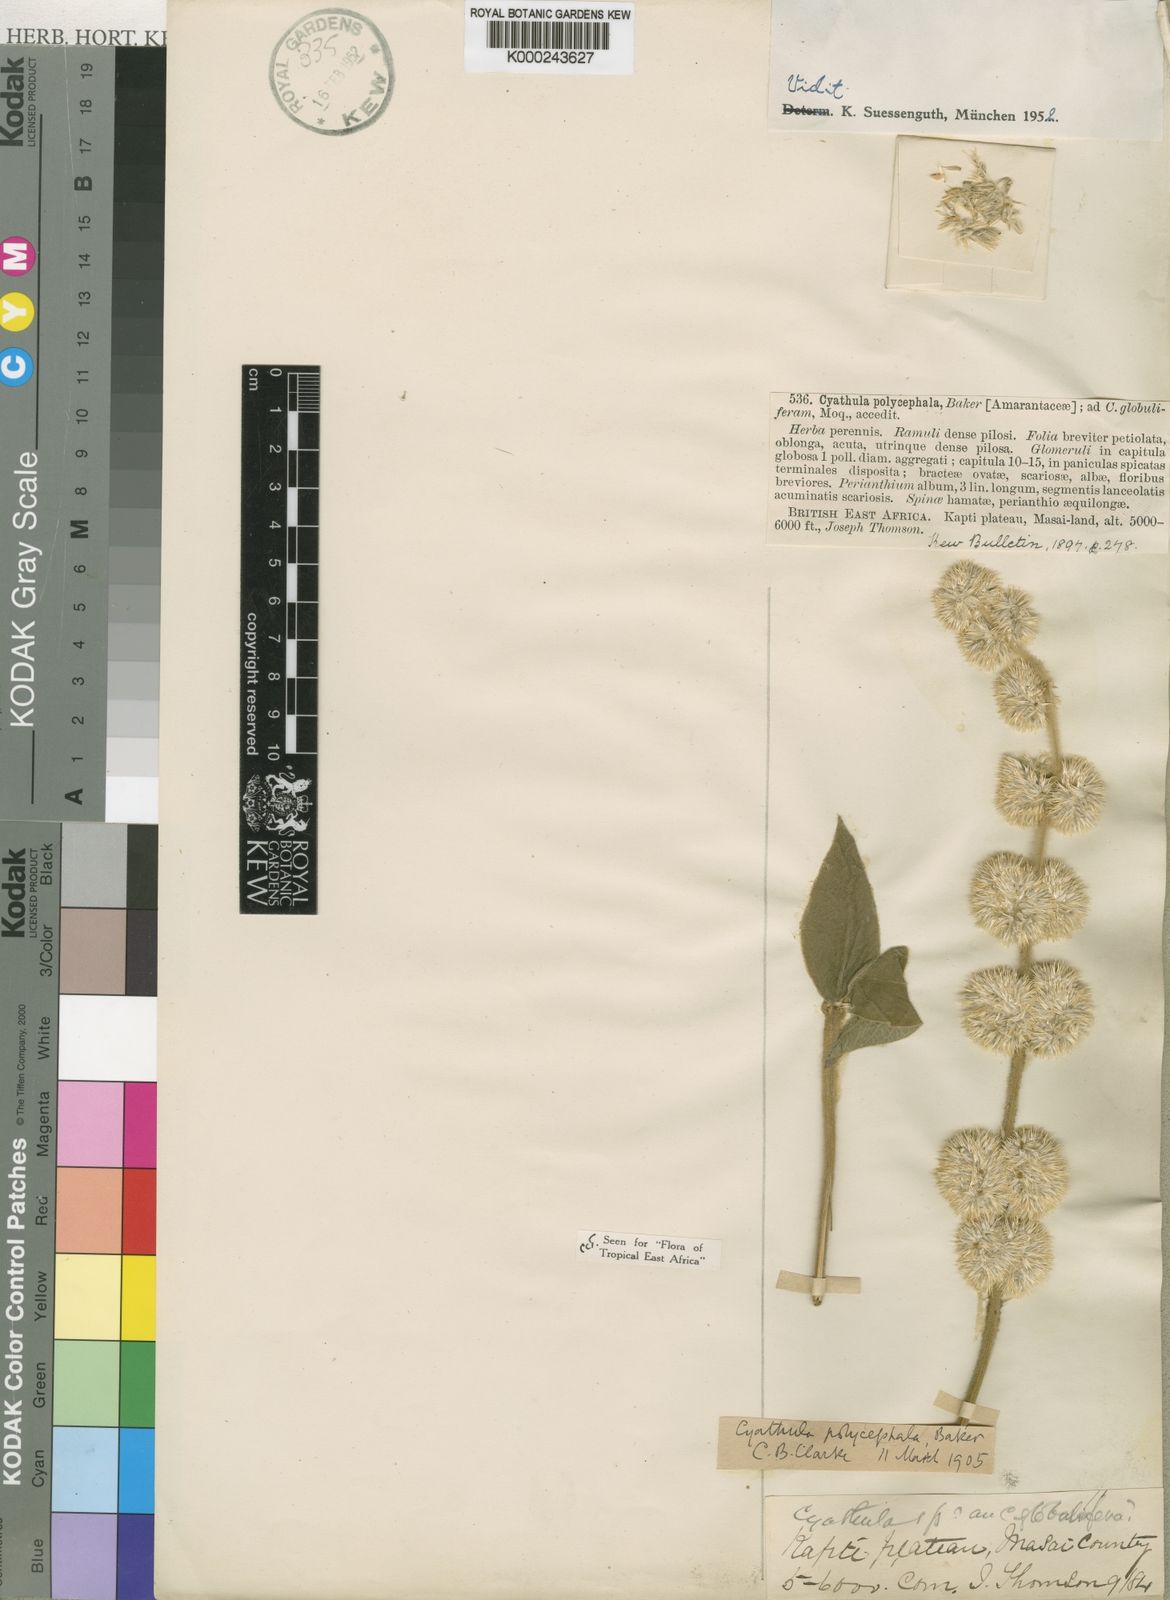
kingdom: Plantae
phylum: Tracheophyta
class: Magnoliopsida
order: Caryophyllales
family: Amaranthaceae
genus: Cyathula
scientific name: Cyathula uncinulata
